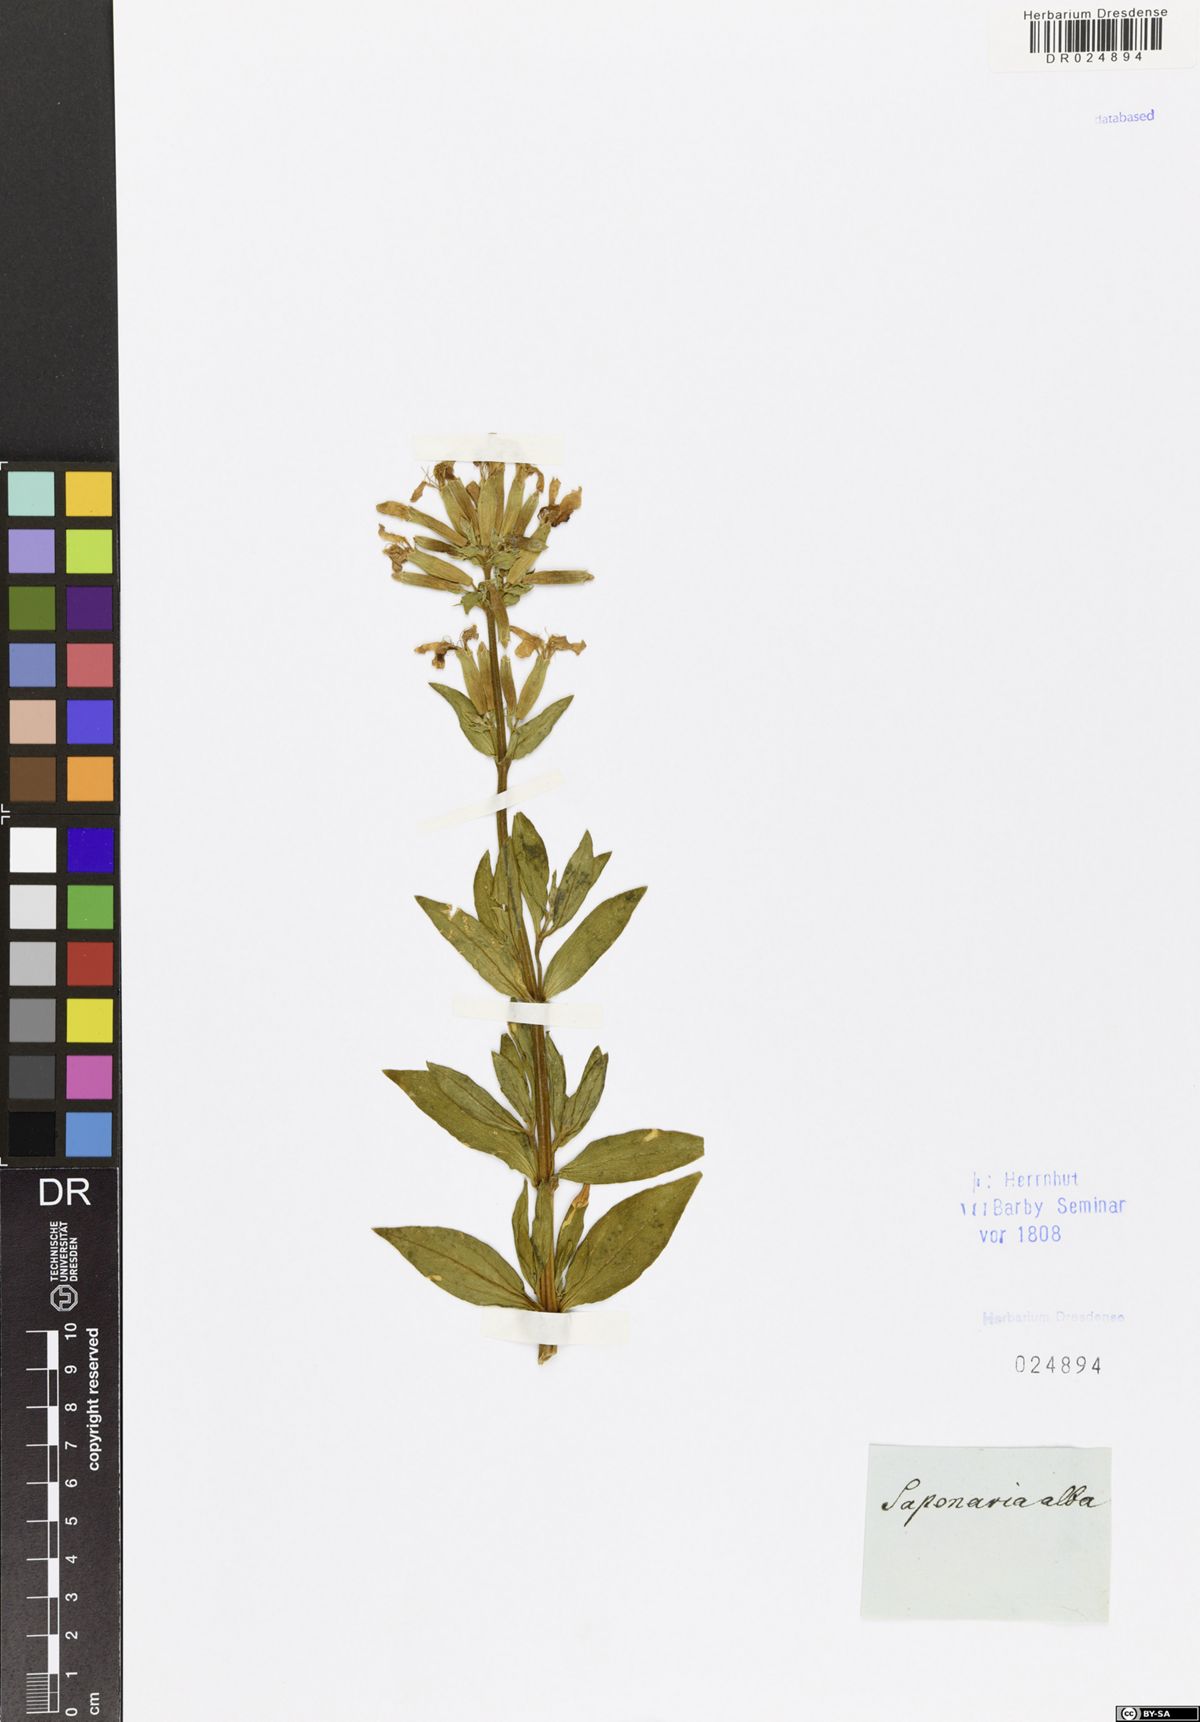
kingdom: Plantae
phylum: Tracheophyta
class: Magnoliopsida
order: Caryophyllales
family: Caryophyllaceae
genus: Saponaria
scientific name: Saponaria officinalis
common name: Soapwort
